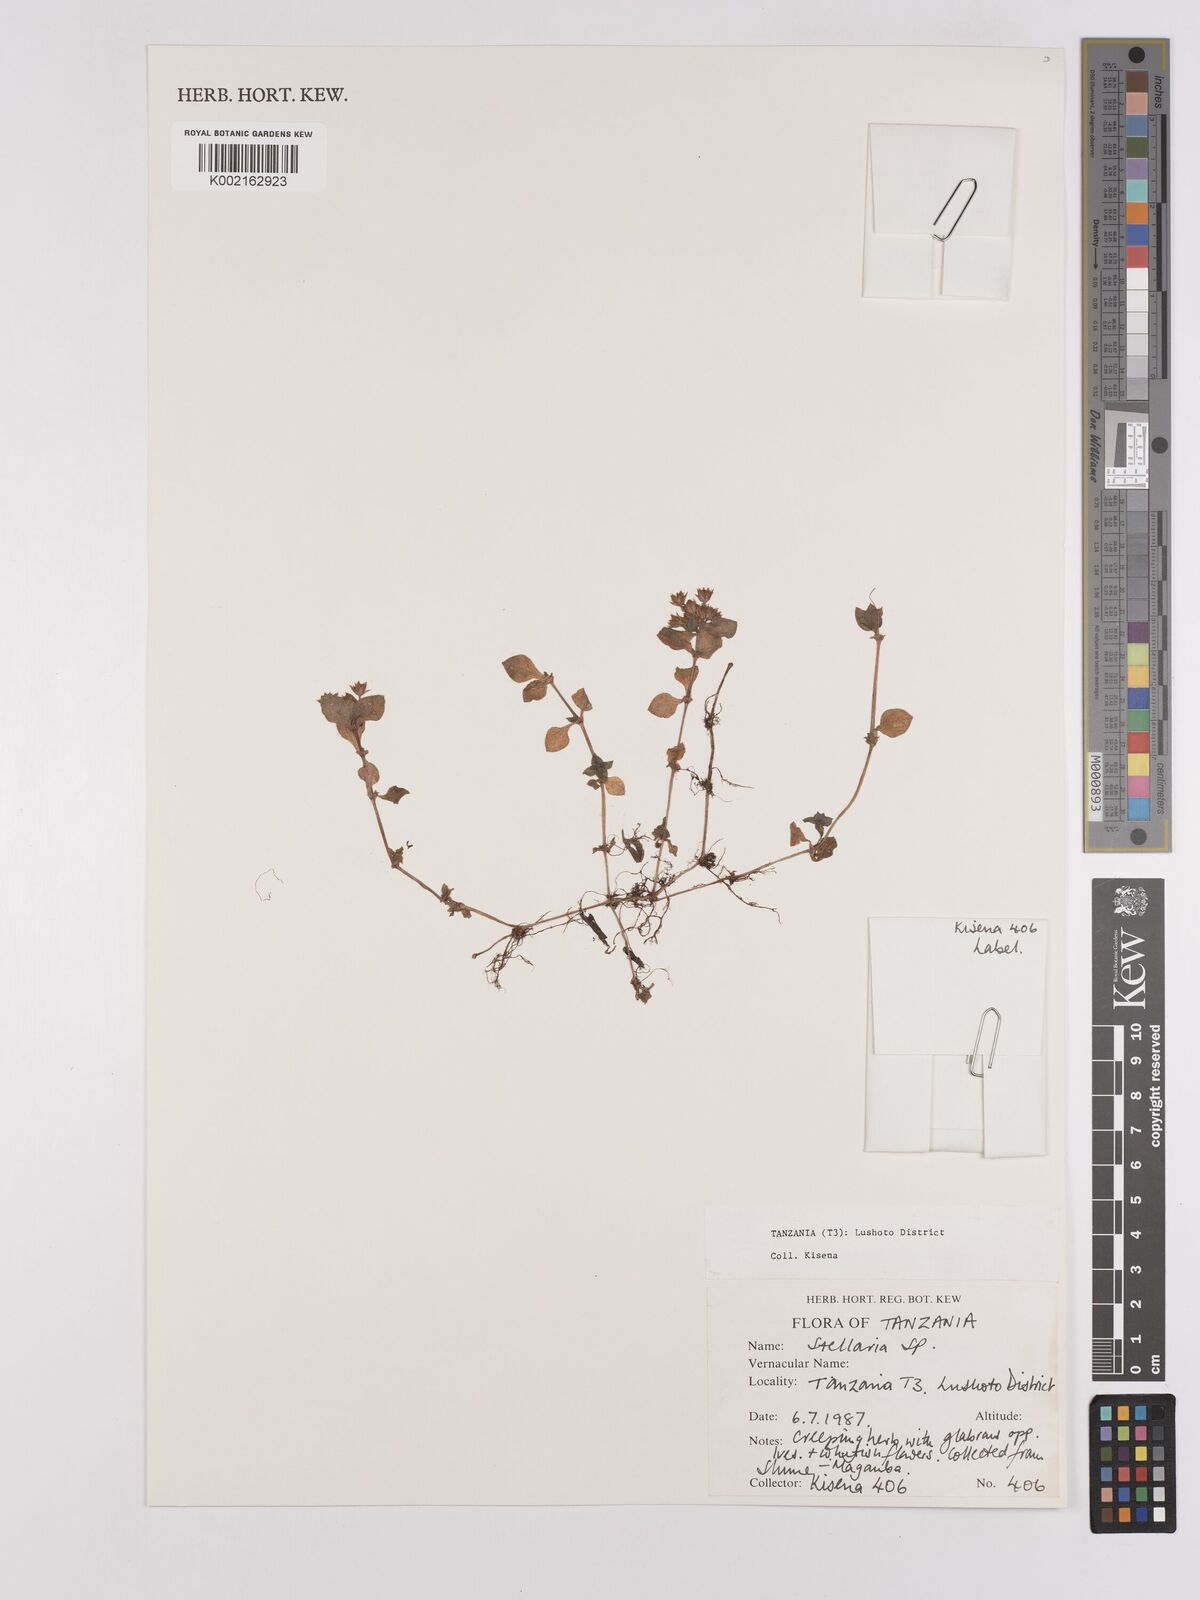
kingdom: Plantae
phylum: Tracheophyta
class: Magnoliopsida
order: Saxifragales
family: Crassulaceae
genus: Crassula
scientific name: Crassula alsinoides
